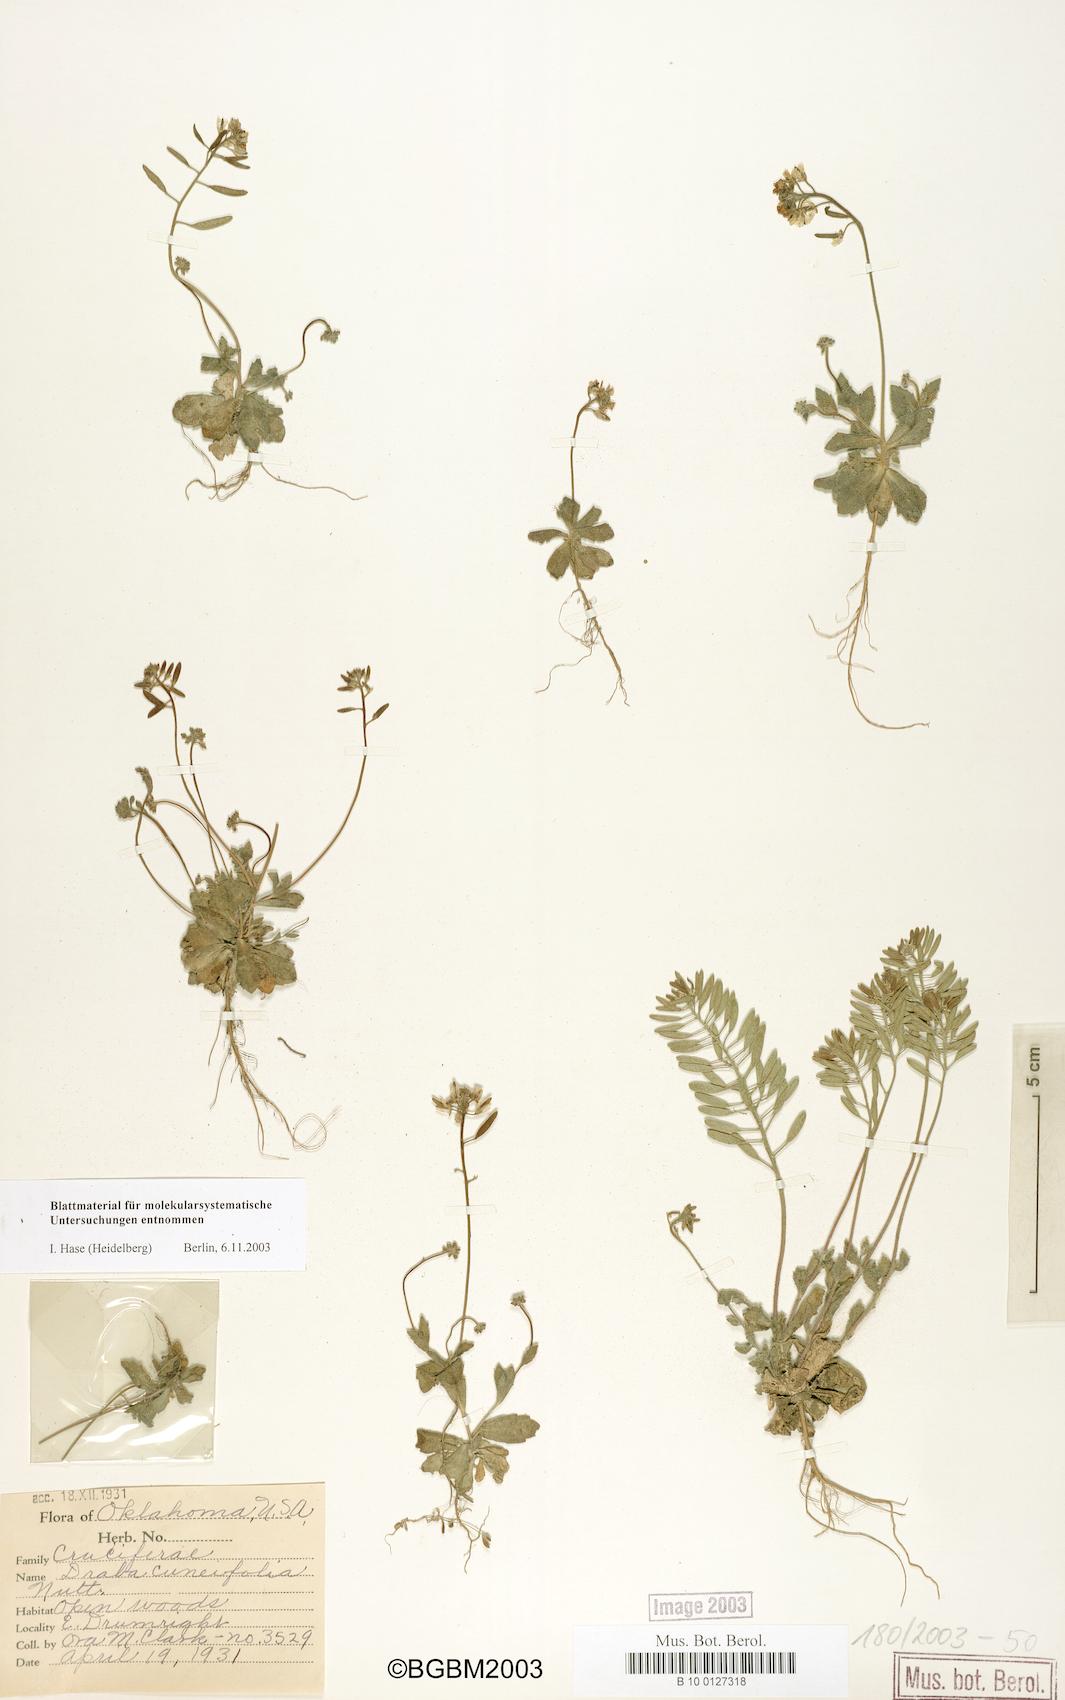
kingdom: Plantae
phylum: Tracheophyta
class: Magnoliopsida
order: Brassicales
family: Brassicaceae
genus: Tomostima
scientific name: Tomostima cuneifolia
